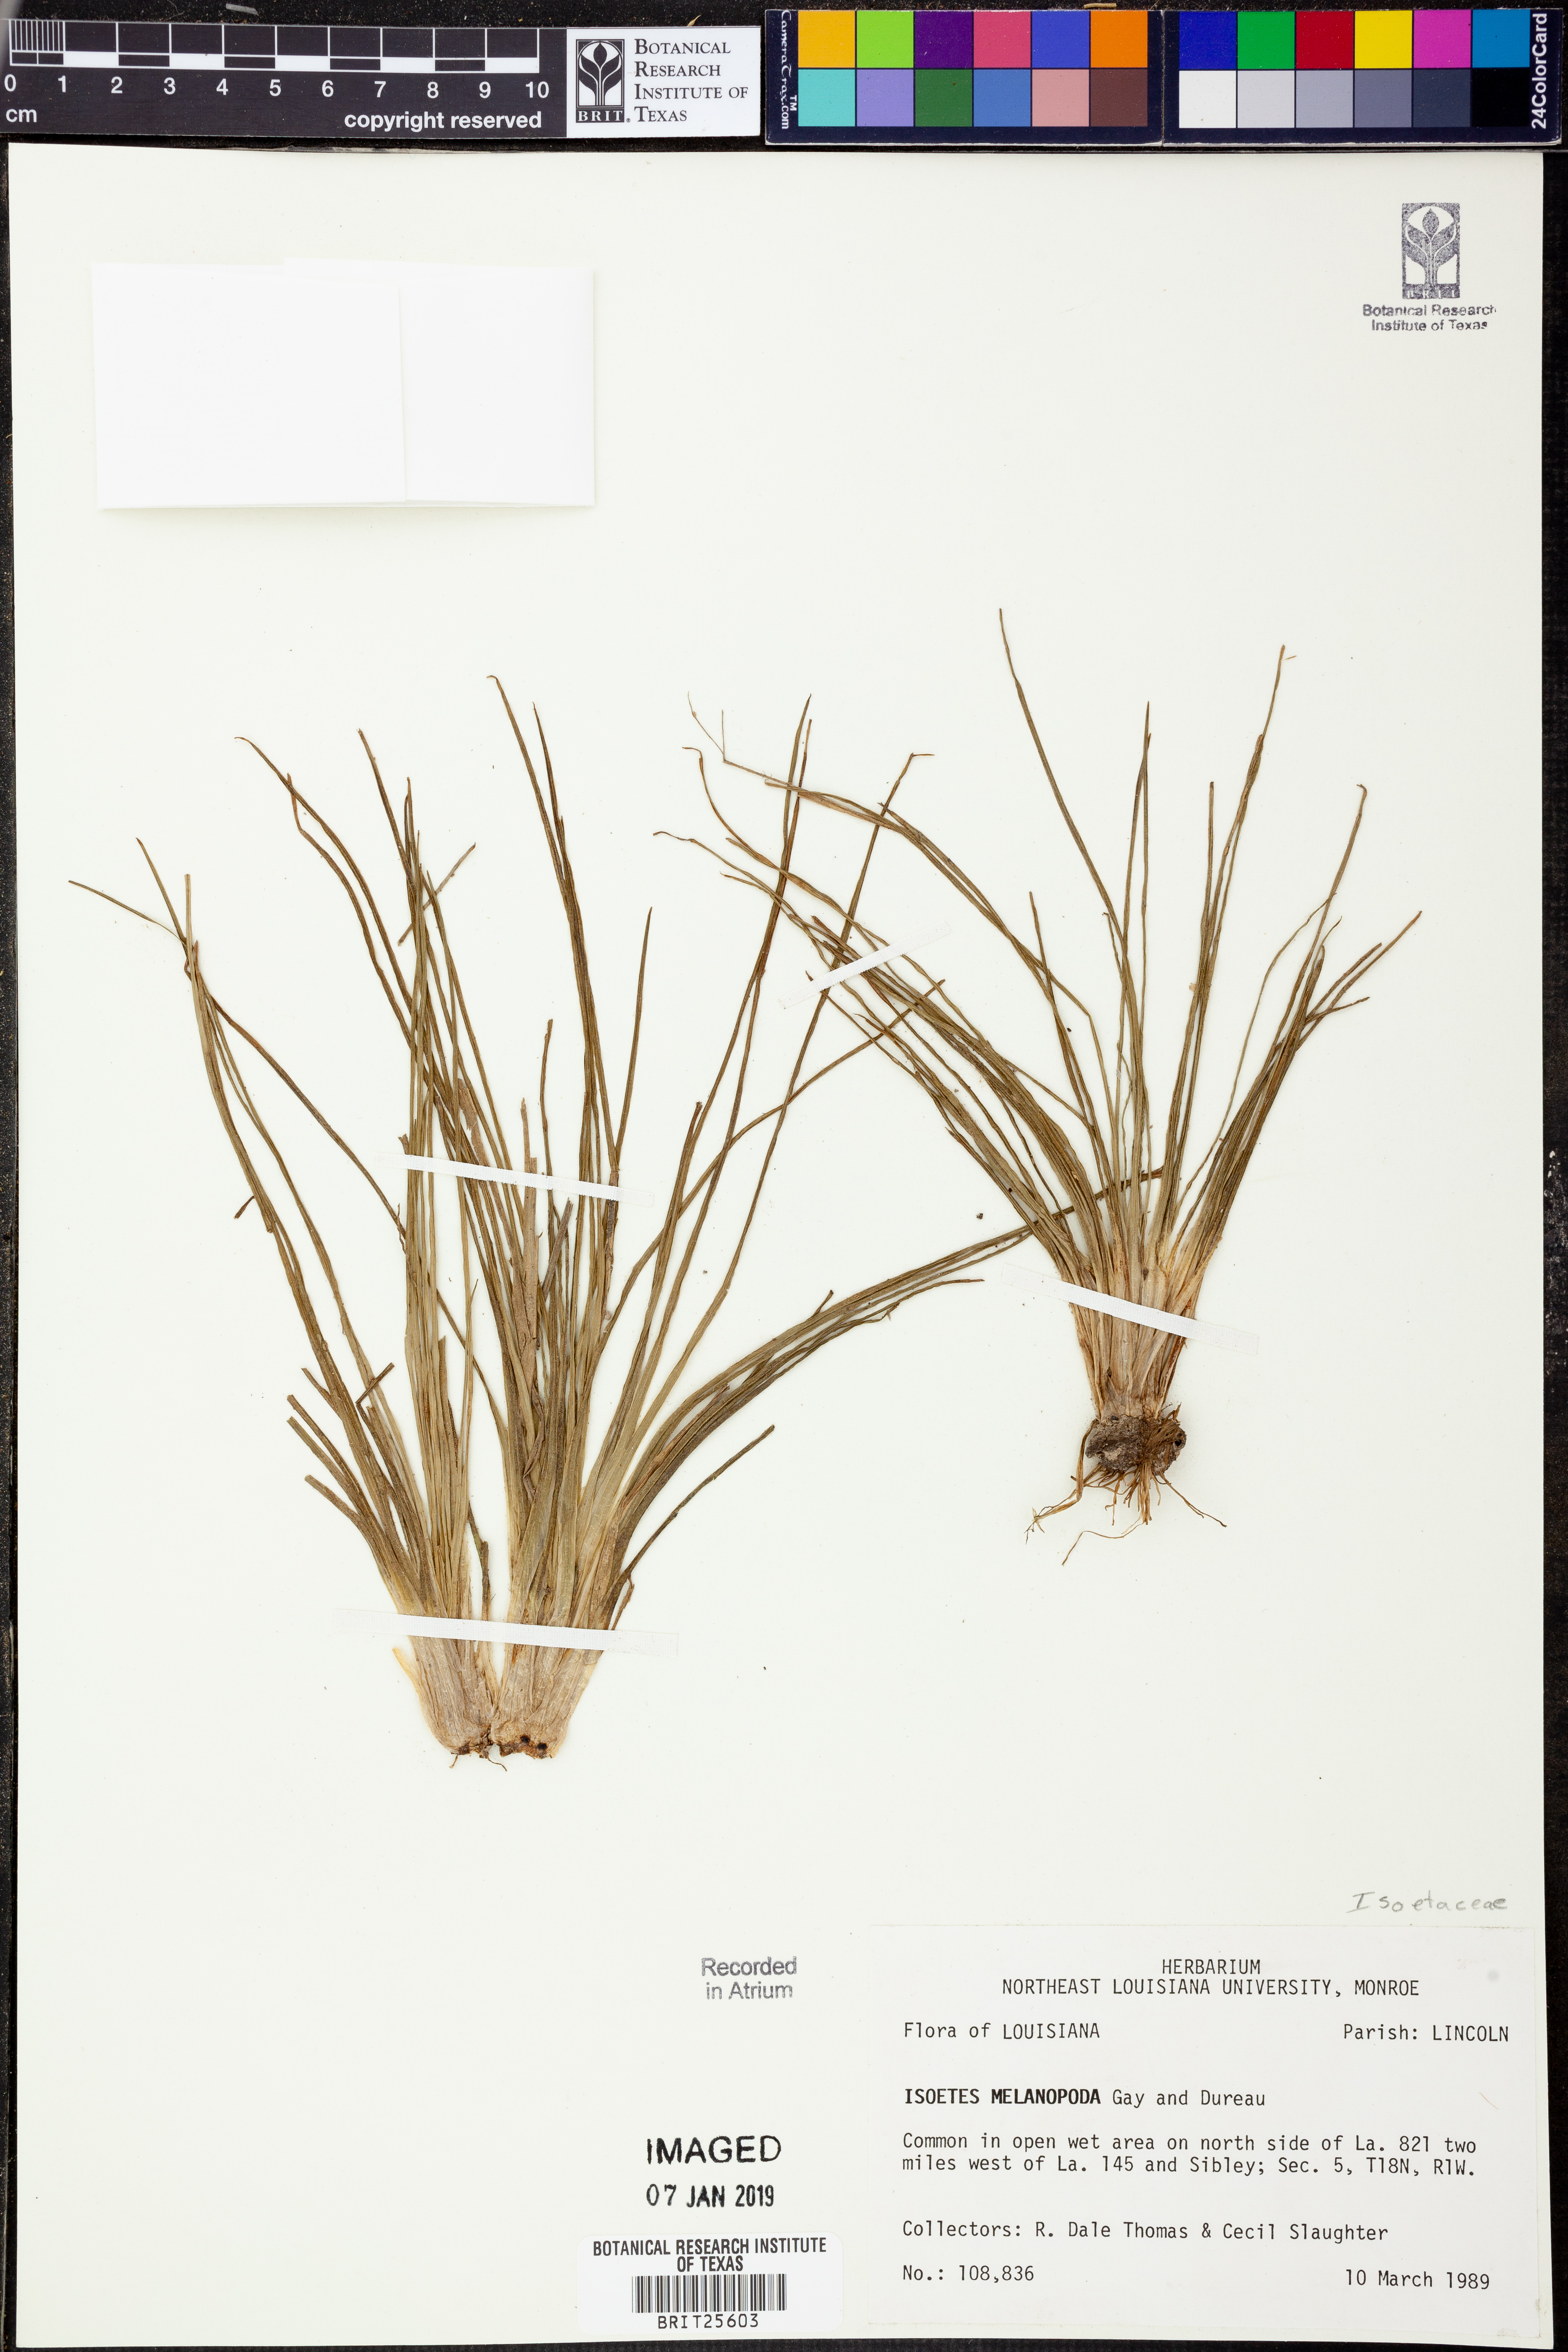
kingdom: Plantae
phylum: Tracheophyta
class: Lycopodiopsida
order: Isoetales
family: Isoetaceae
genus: Isoetes
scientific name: Isoetes melanopoda
